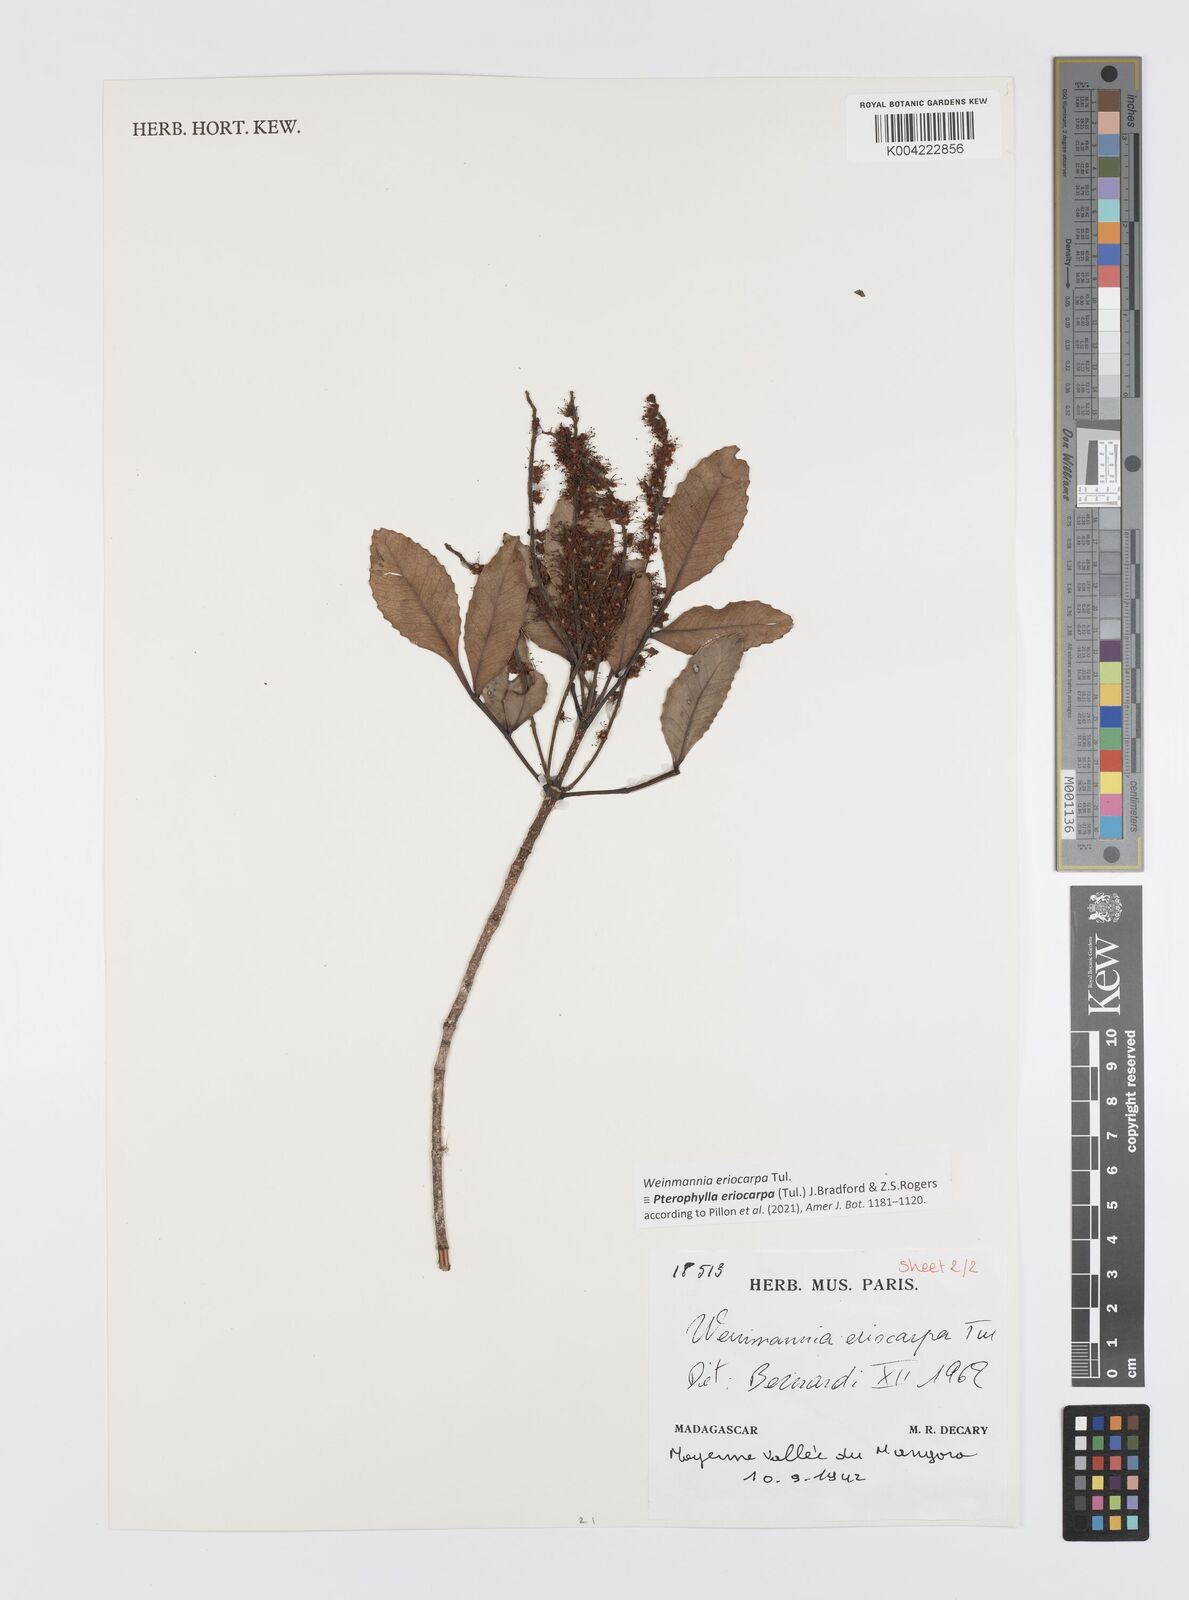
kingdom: Plantae
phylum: Tracheophyta
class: Magnoliopsida
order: Oxalidales
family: Cunoniaceae
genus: Pterophylla
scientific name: Pterophylla eriocarpa
